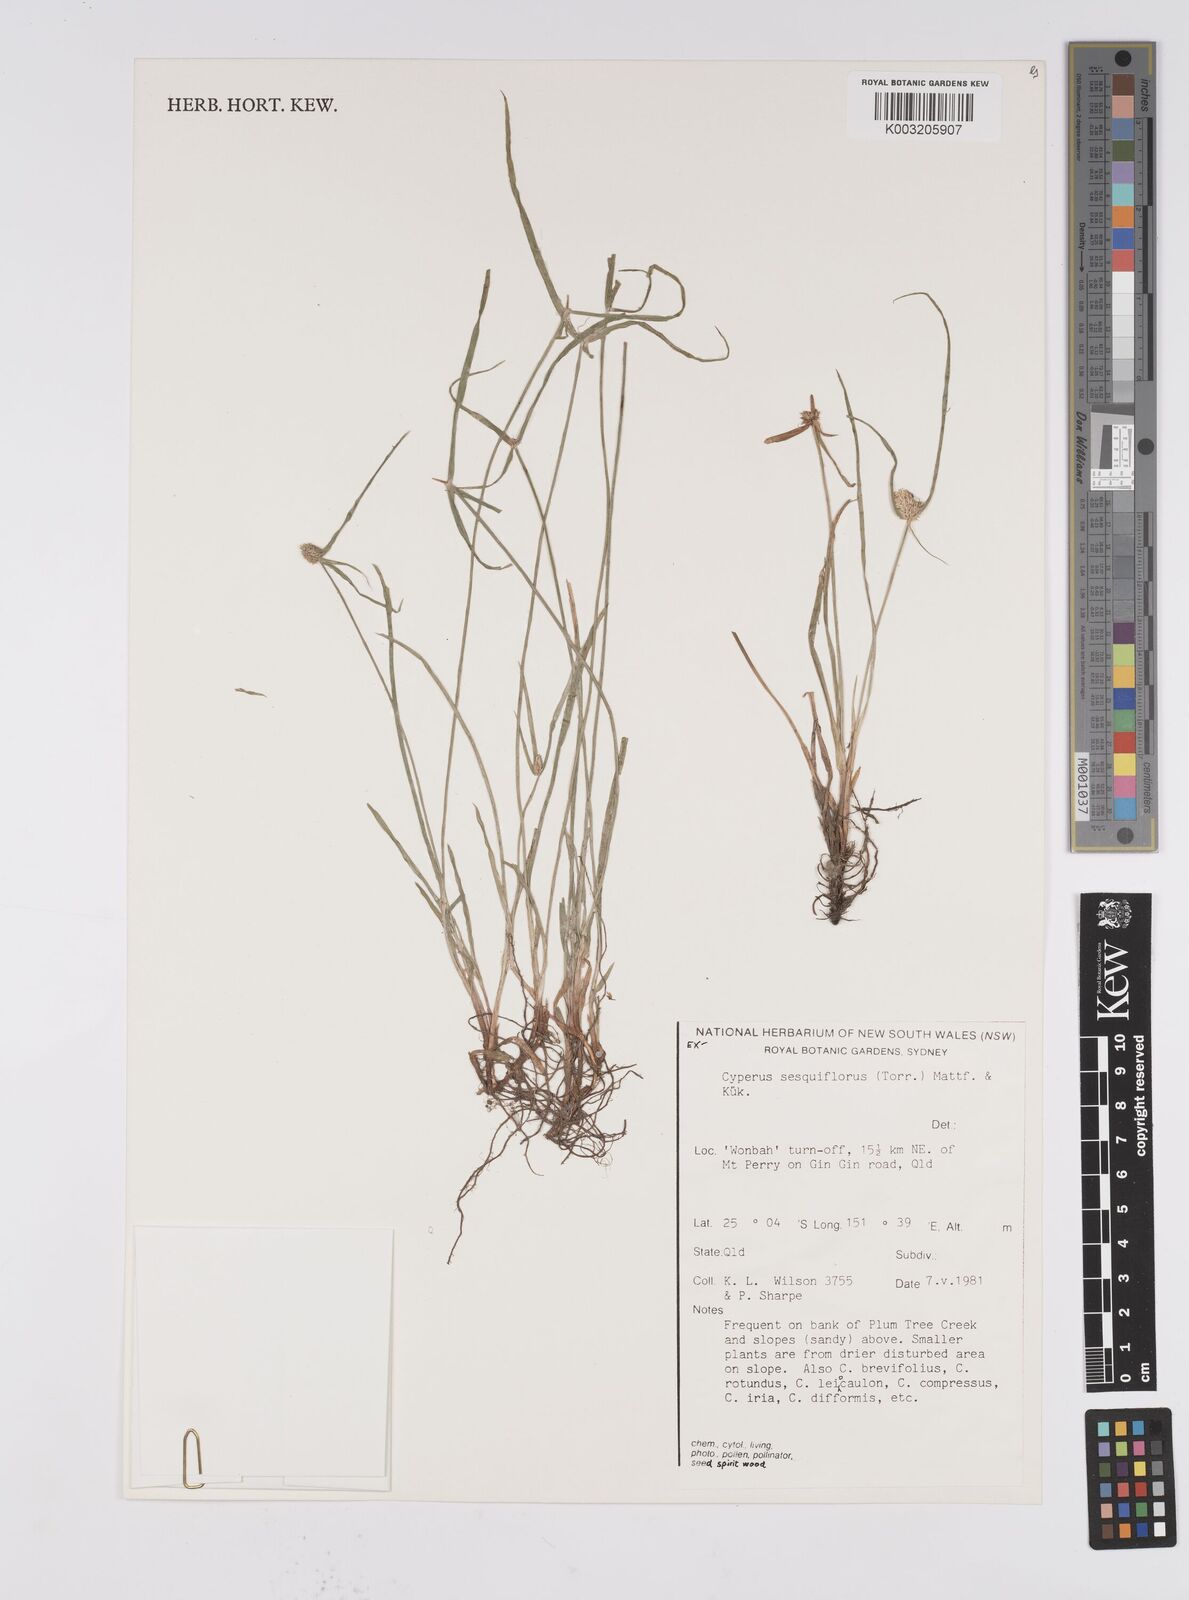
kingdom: Plantae
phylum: Tracheophyta
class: Liliopsida
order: Poales
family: Cyperaceae
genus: Cyperus
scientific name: Cyperus
